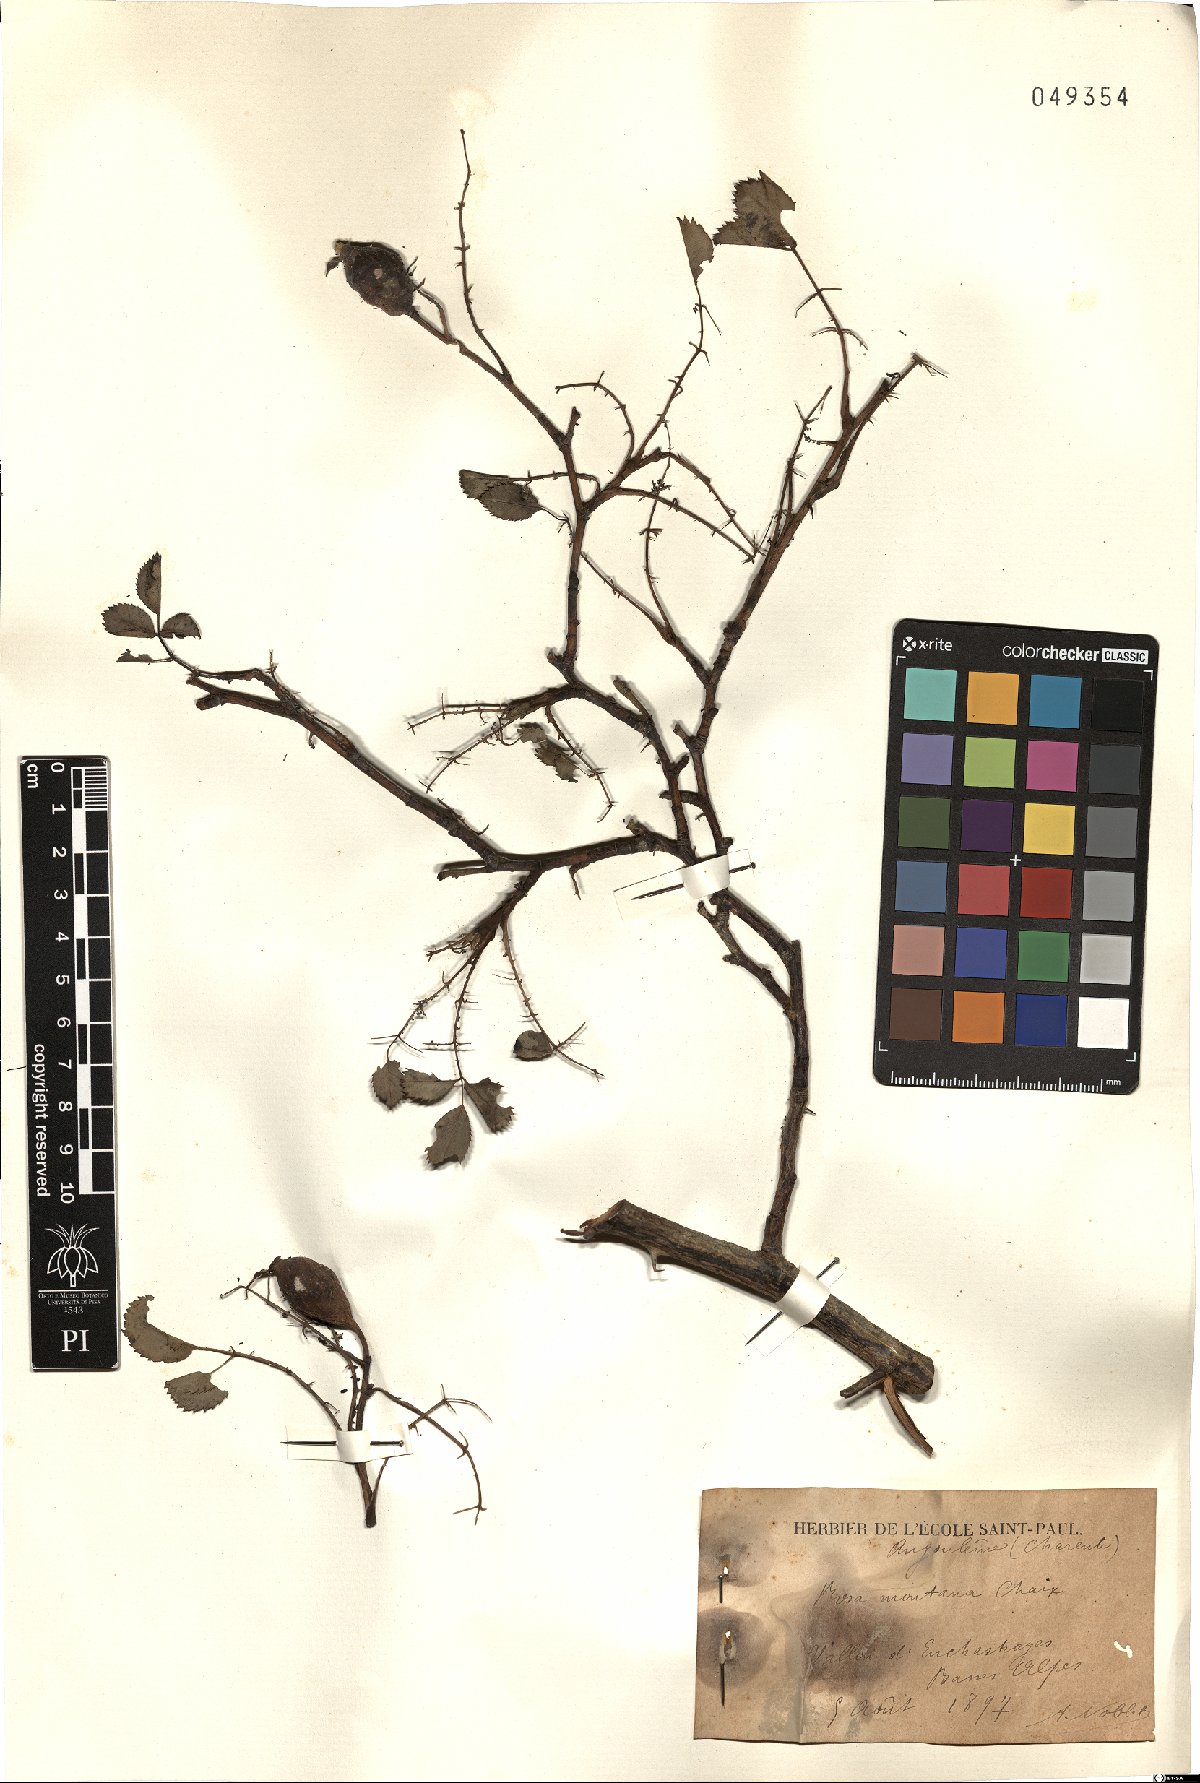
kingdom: Plantae
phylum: Tracheophyta
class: Magnoliopsida
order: Rosales
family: Rosaceae
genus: Rosa
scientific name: Rosa montana
